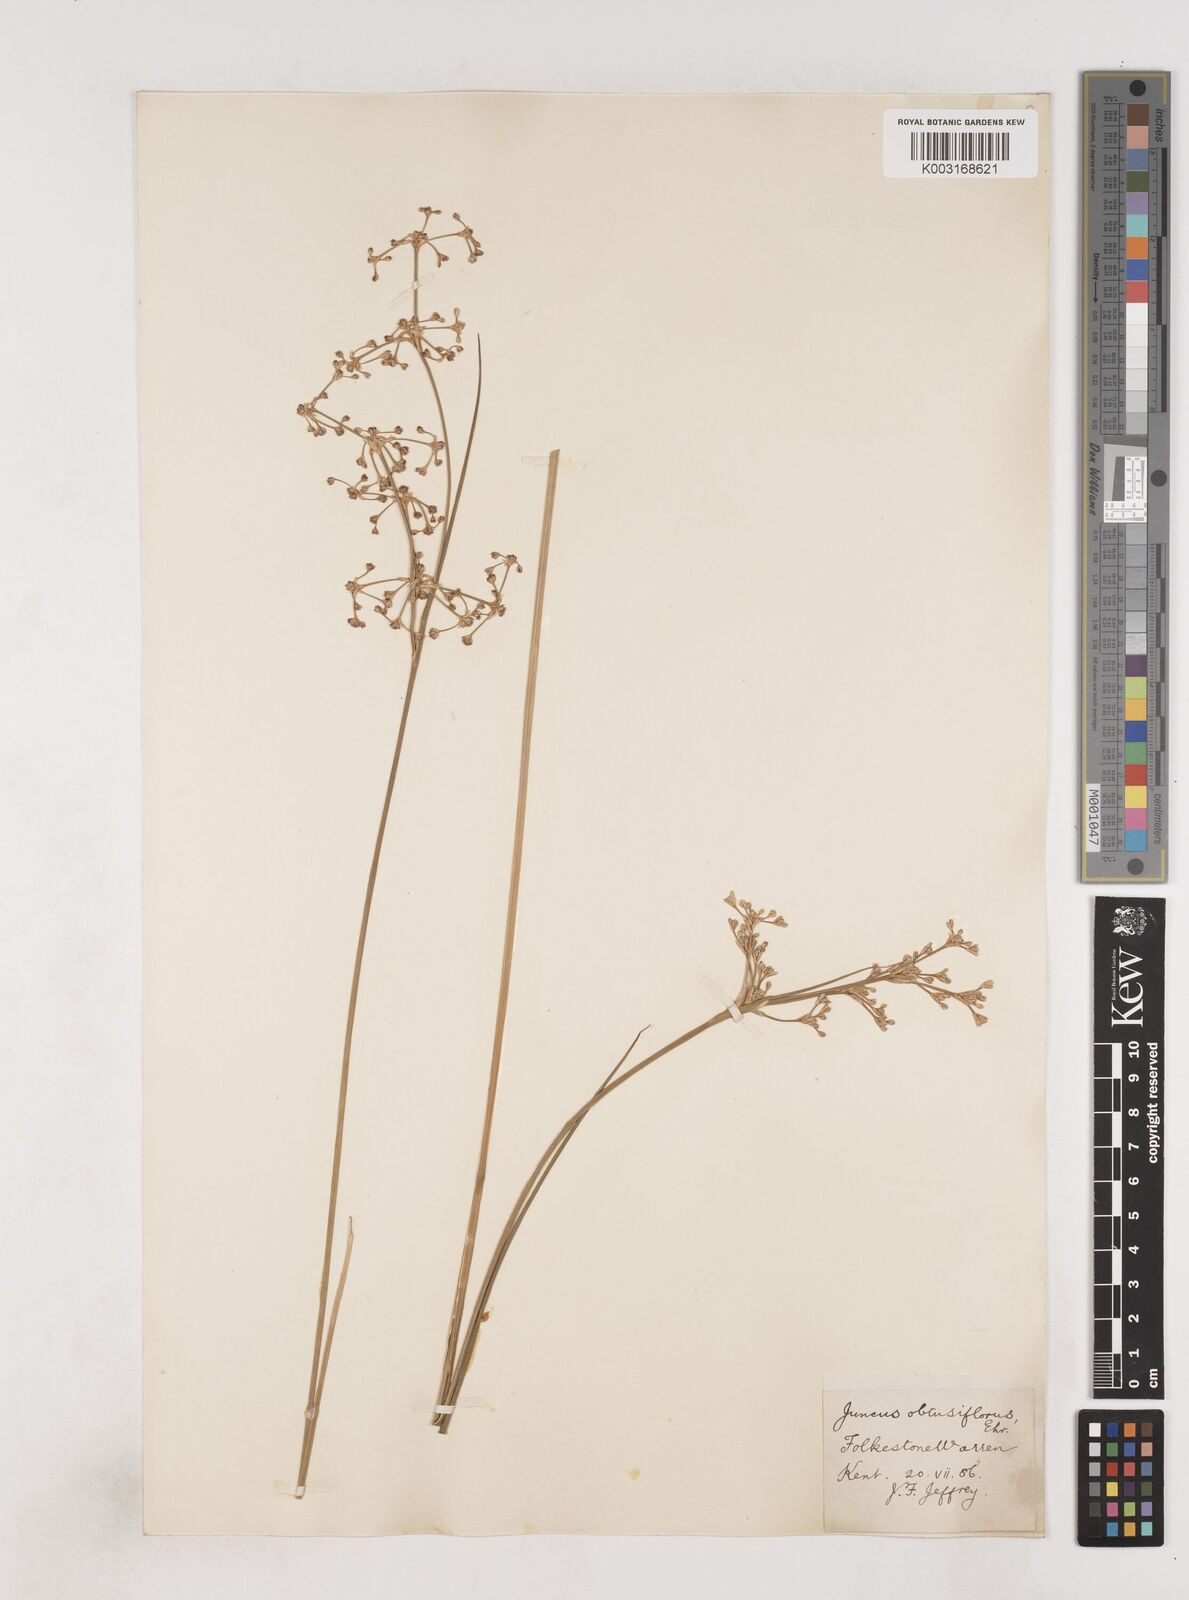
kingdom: Plantae
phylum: Tracheophyta
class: Liliopsida
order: Poales
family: Juncaceae
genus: Juncus
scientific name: Juncus subnodulosus
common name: Blunt-flowered rush
